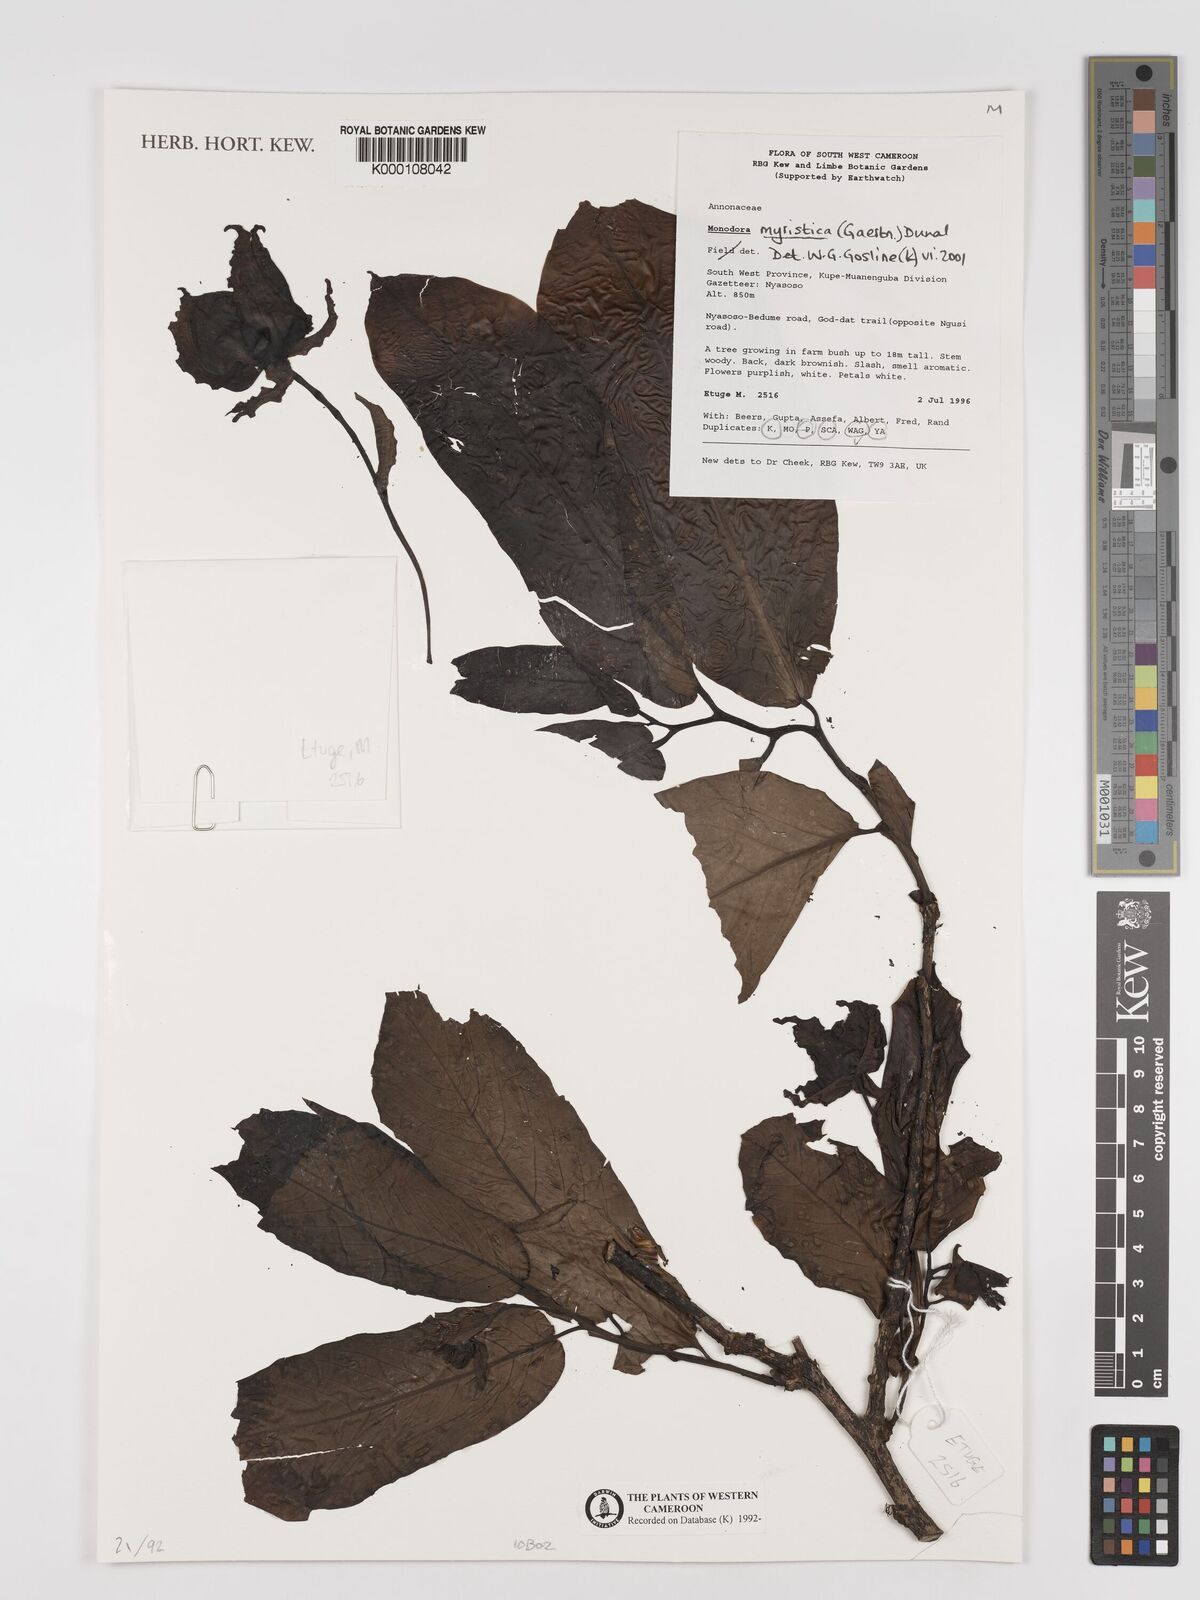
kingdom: Plantae
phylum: Tracheophyta
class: Magnoliopsida
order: Magnoliales
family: Annonaceae
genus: Monodora
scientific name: Monodora myristica
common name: African nutmeg
